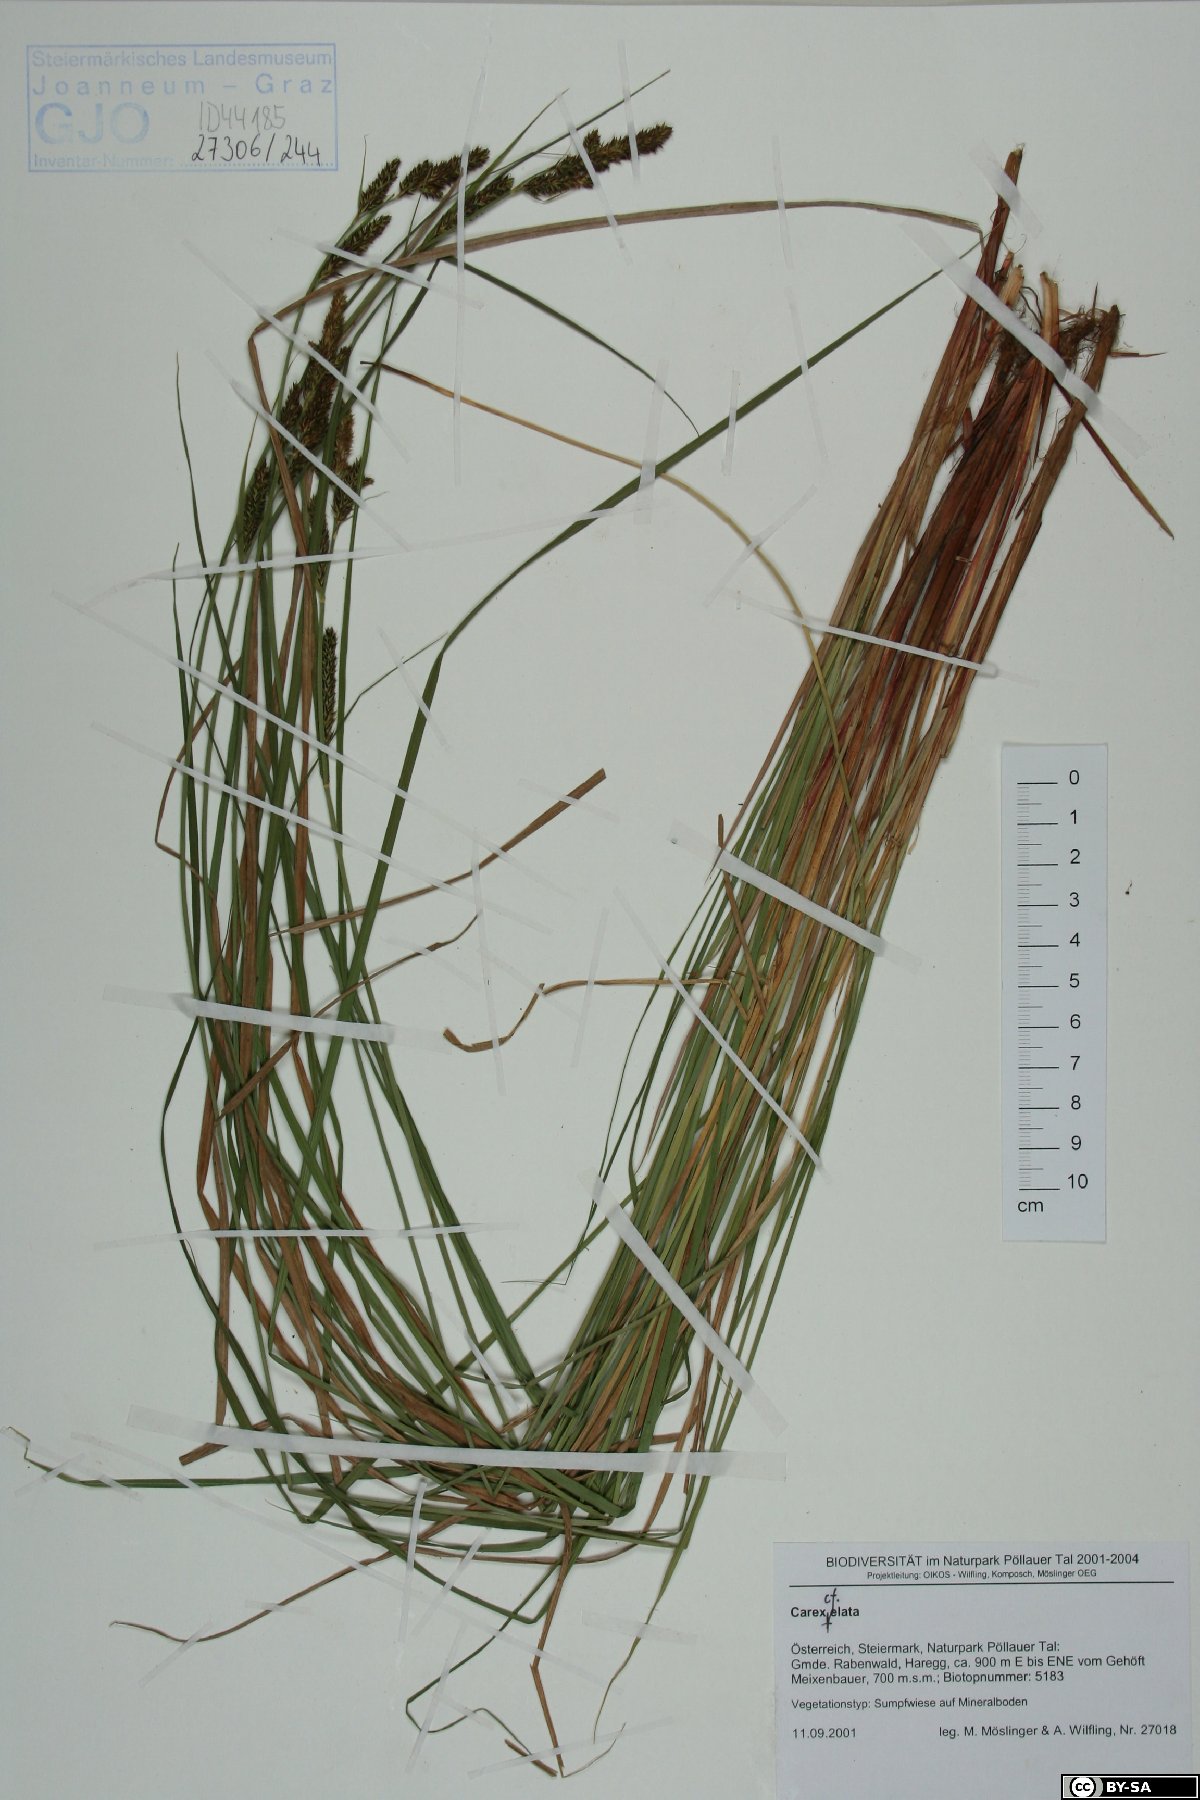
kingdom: Plantae
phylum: Tracheophyta
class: Liliopsida
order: Poales
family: Cyperaceae
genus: Carex
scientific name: Carex elata
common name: Tufted sedge
